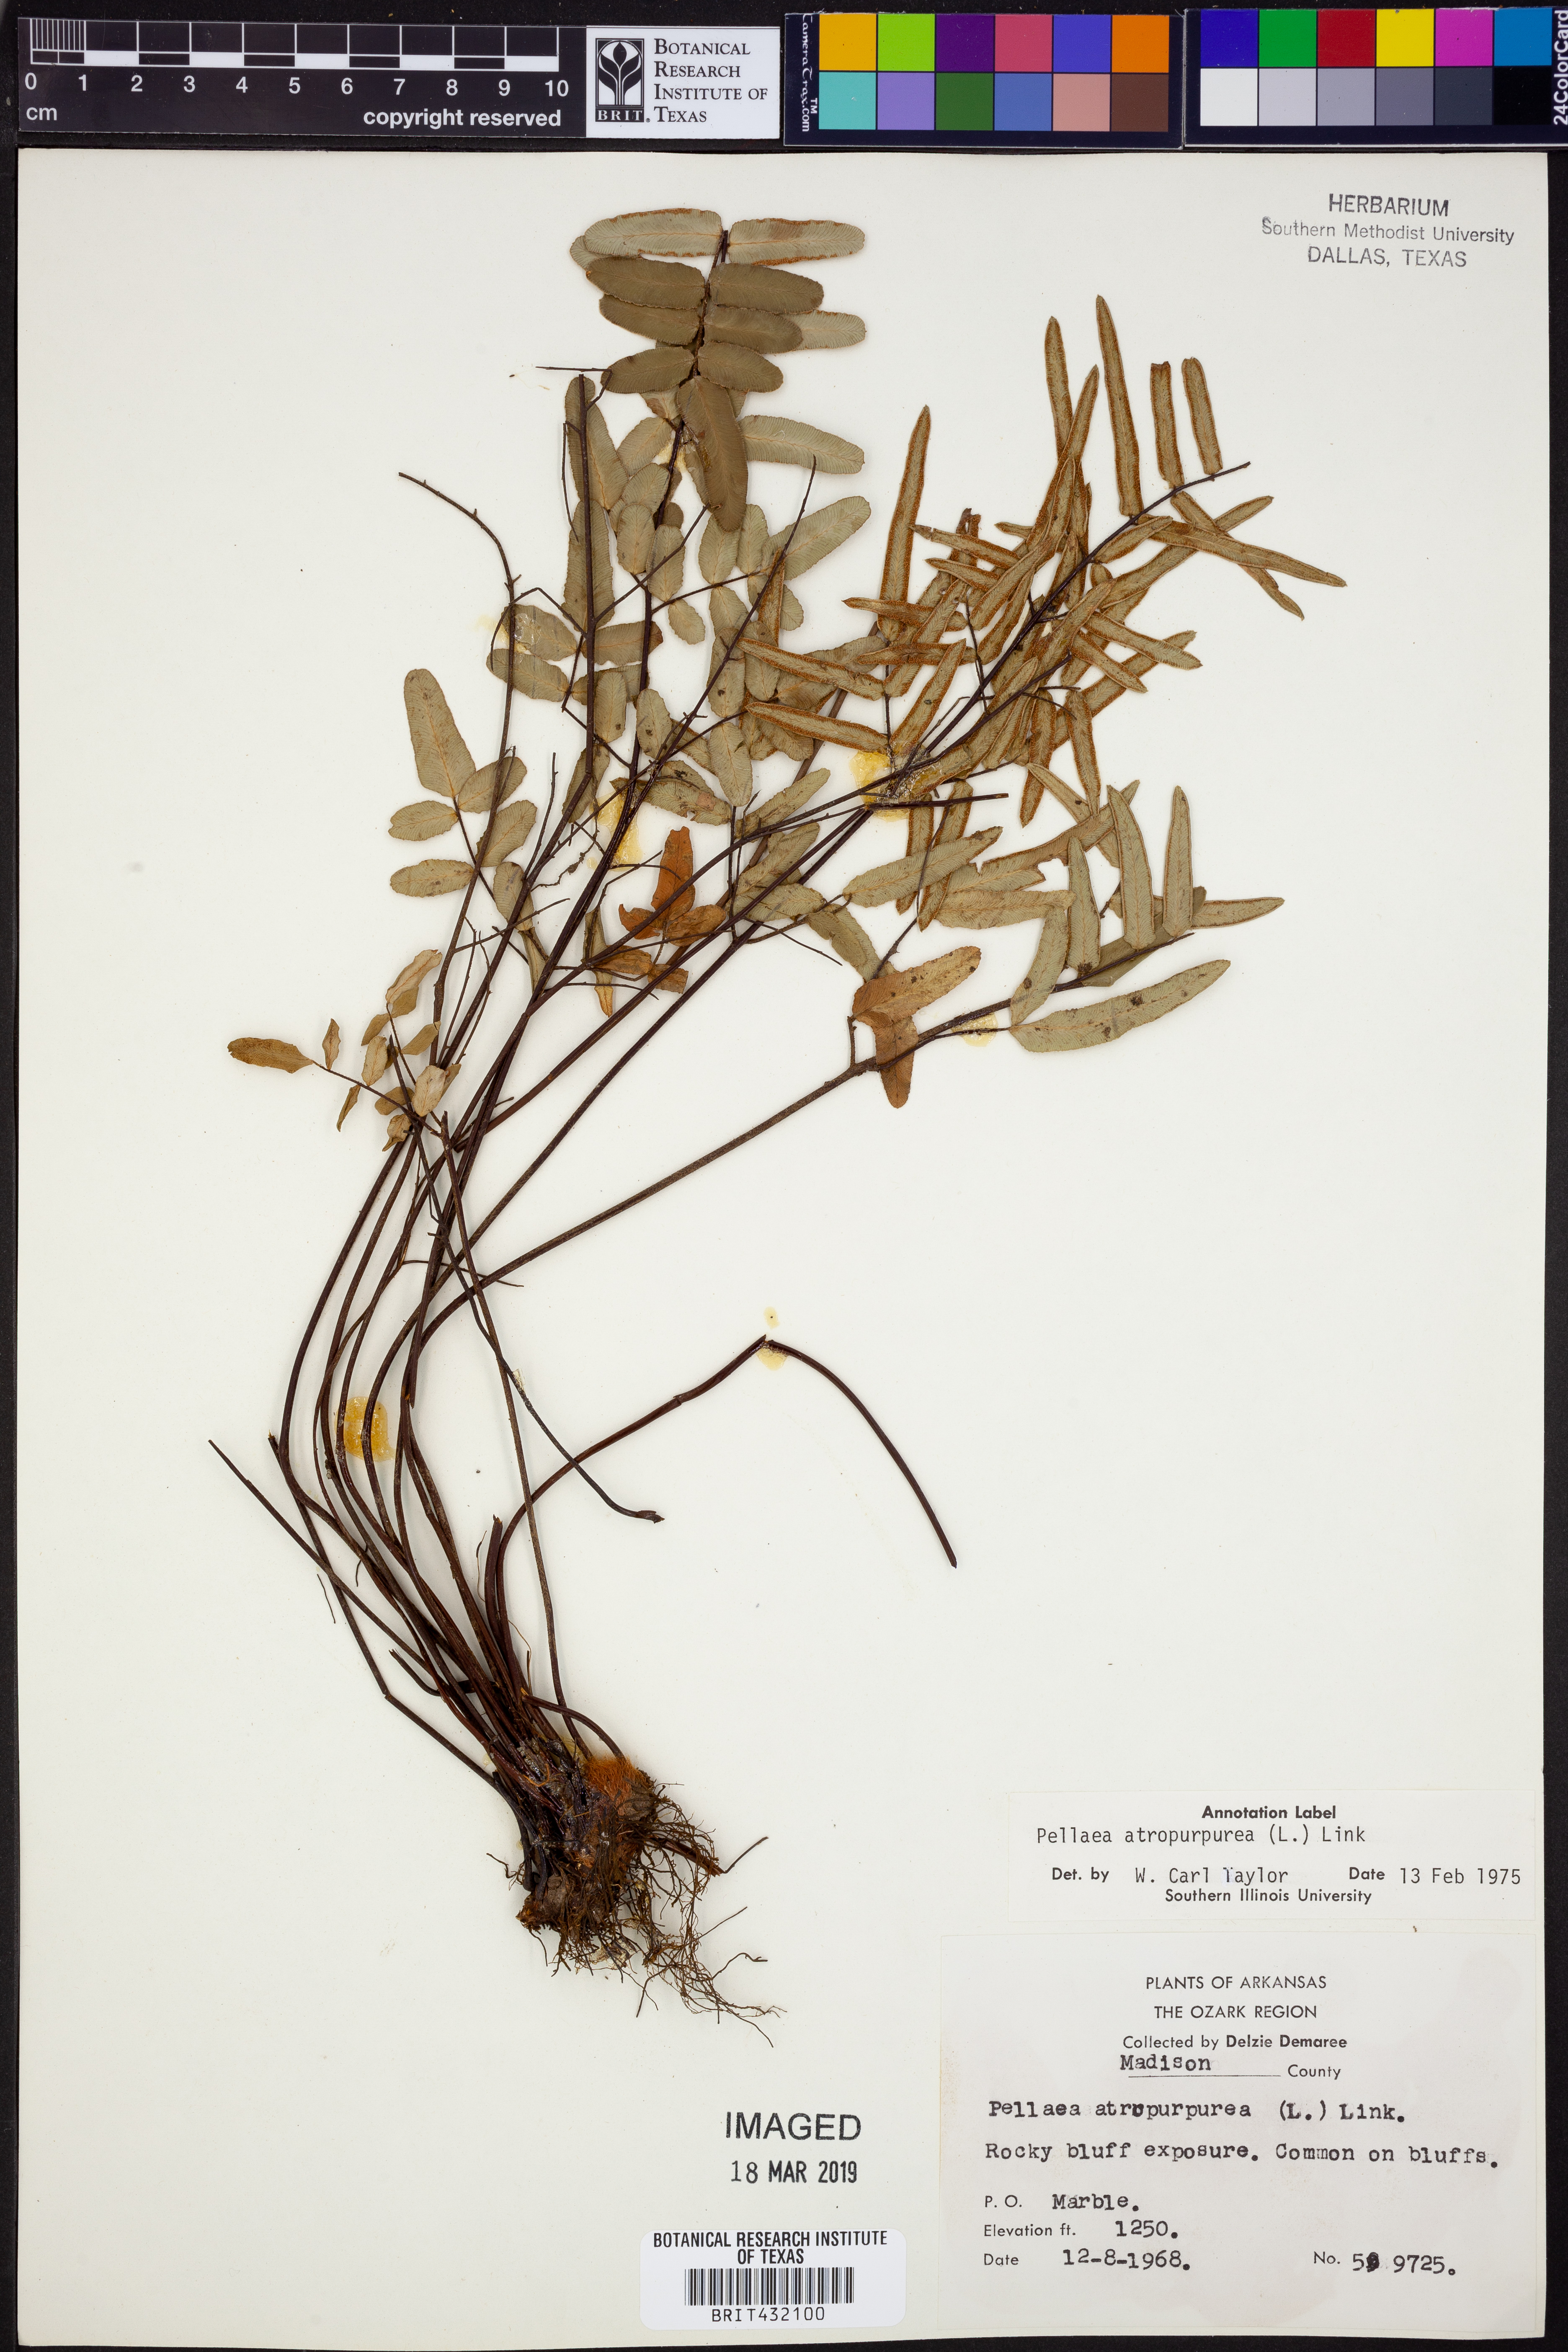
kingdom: Plantae
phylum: Tracheophyta
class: Polypodiopsida
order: Polypodiales
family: Pteridaceae
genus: Pellaea
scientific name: Pellaea atropurpurea
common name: Hairy cliffbrake
